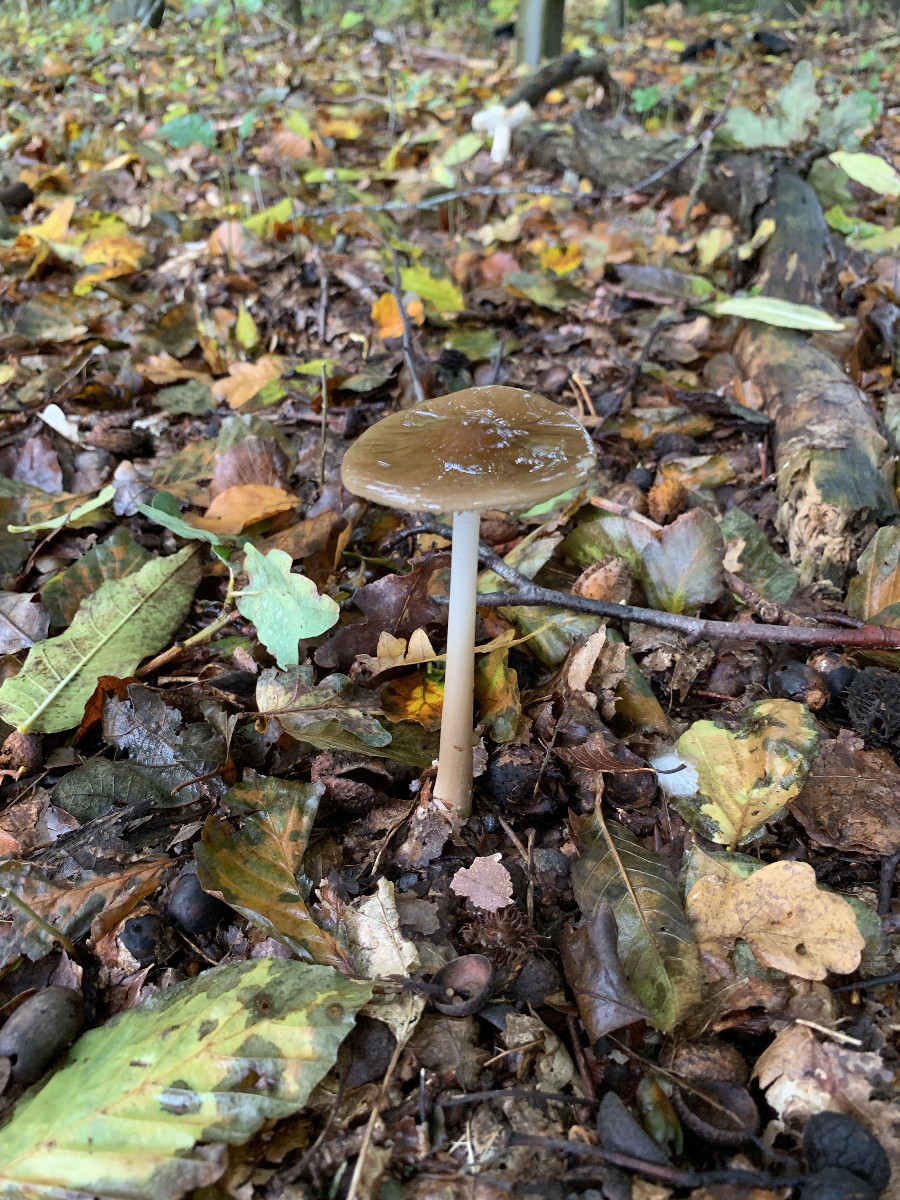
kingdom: Fungi
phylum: Basidiomycota
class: Agaricomycetes
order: Agaricales
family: Physalacriaceae
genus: Hymenopellis
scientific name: Hymenopellis radicata
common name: almindelig pælerodshat
